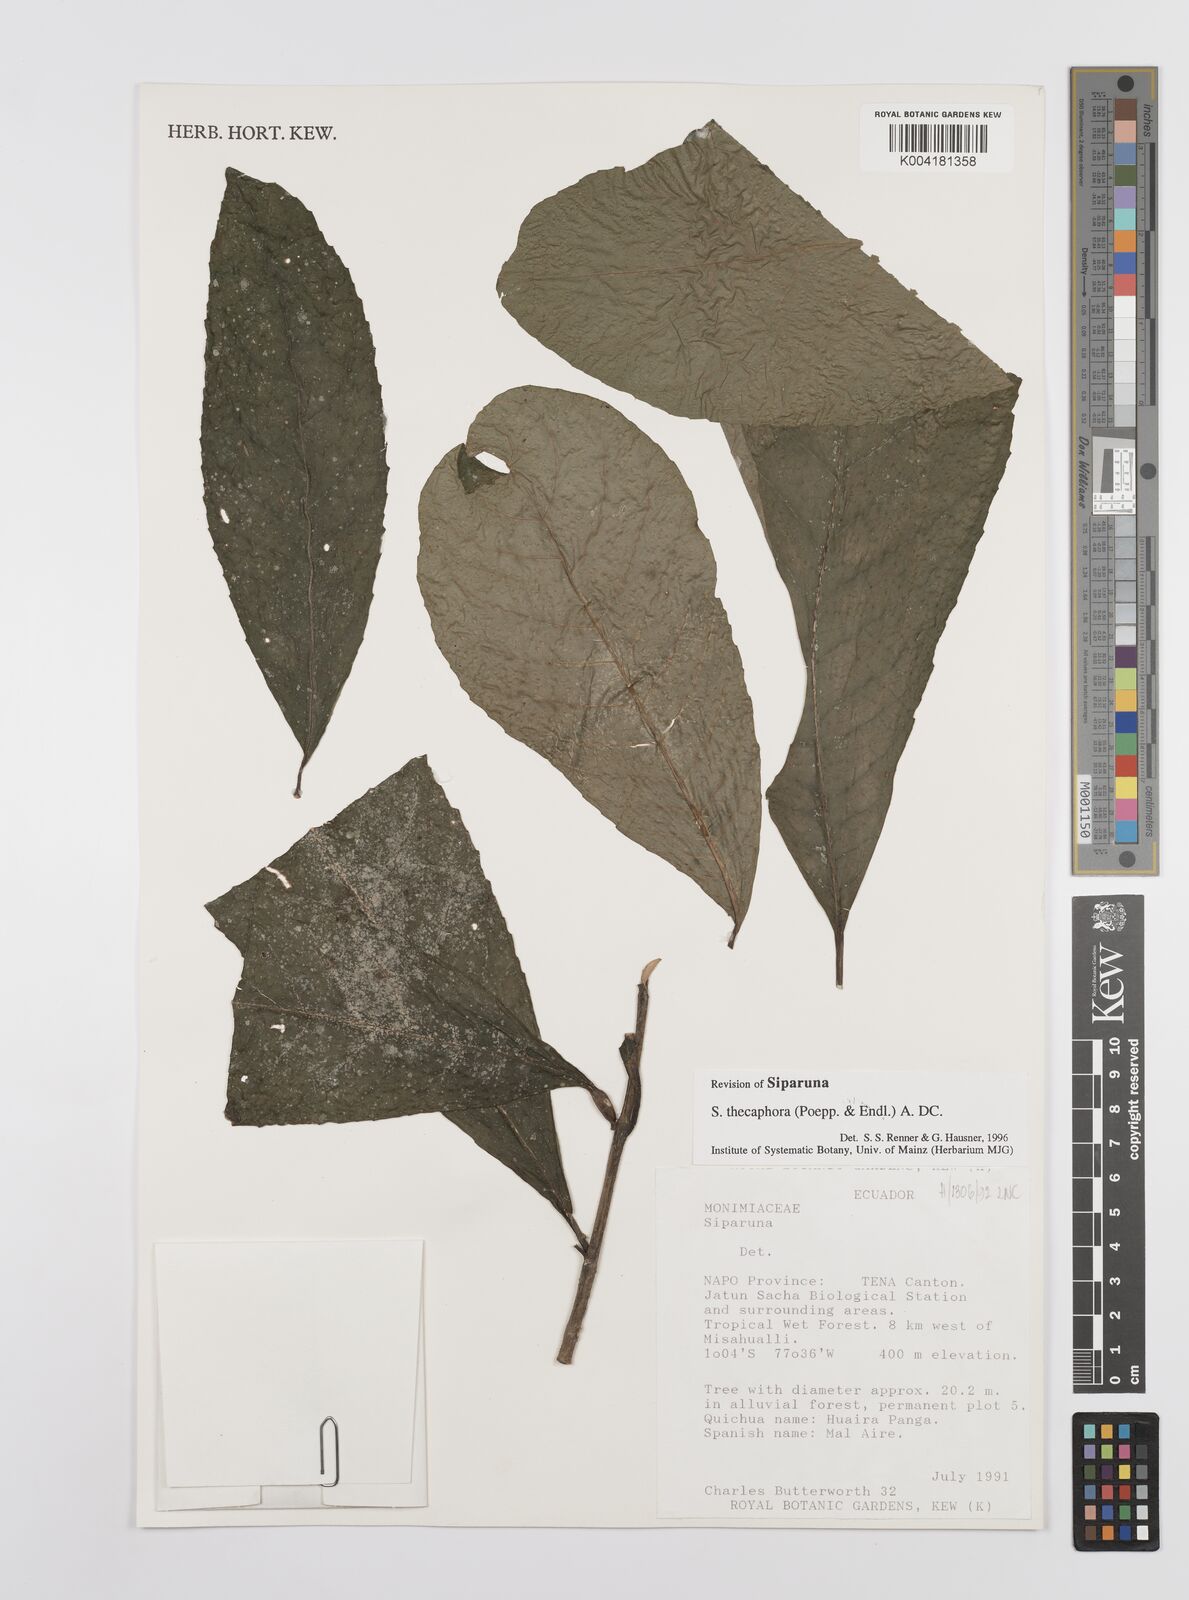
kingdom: Plantae
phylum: Tracheophyta
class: Magnoliopsida
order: Laurales
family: Siparunaceae
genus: Siparuna
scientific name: Siparuna thecaphora
